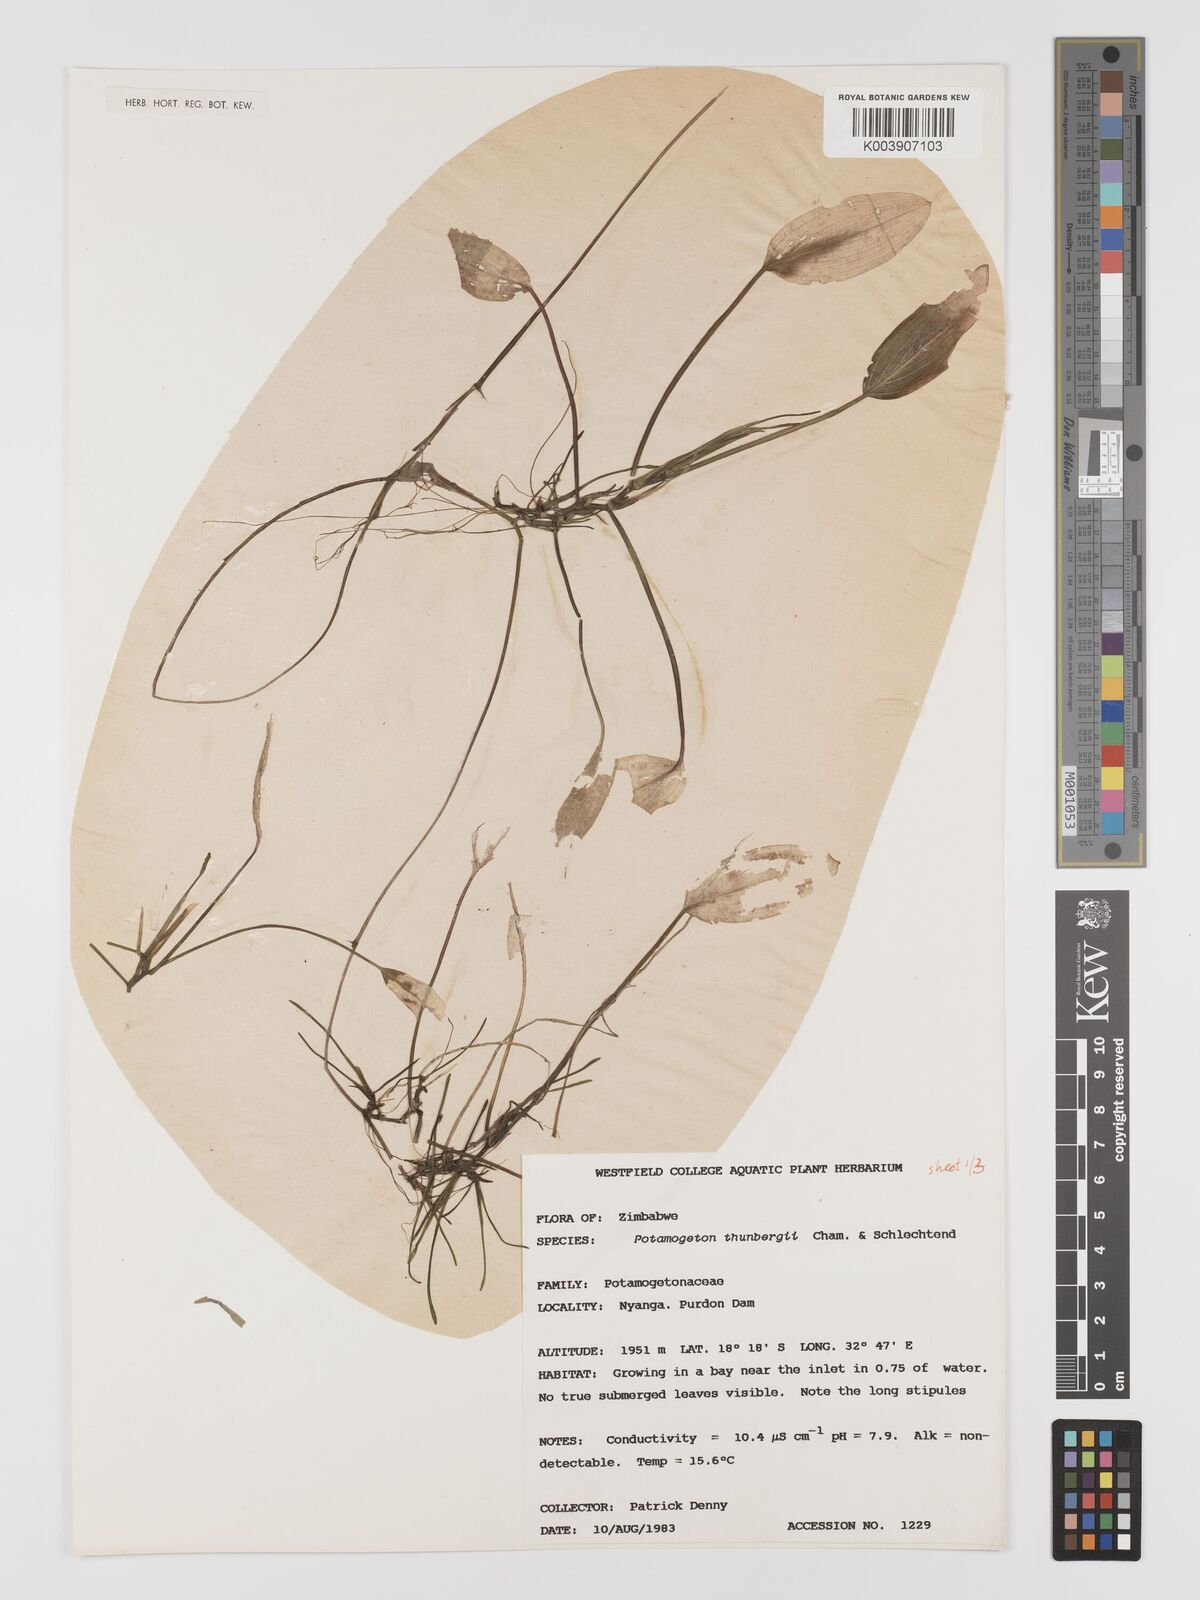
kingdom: Plantae
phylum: Tracheophyta
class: Liliopsida
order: Alismatales
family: Potamogetonaceae
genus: Potamogeton
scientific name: Potamogeton nodosus
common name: Loddon pondweed
